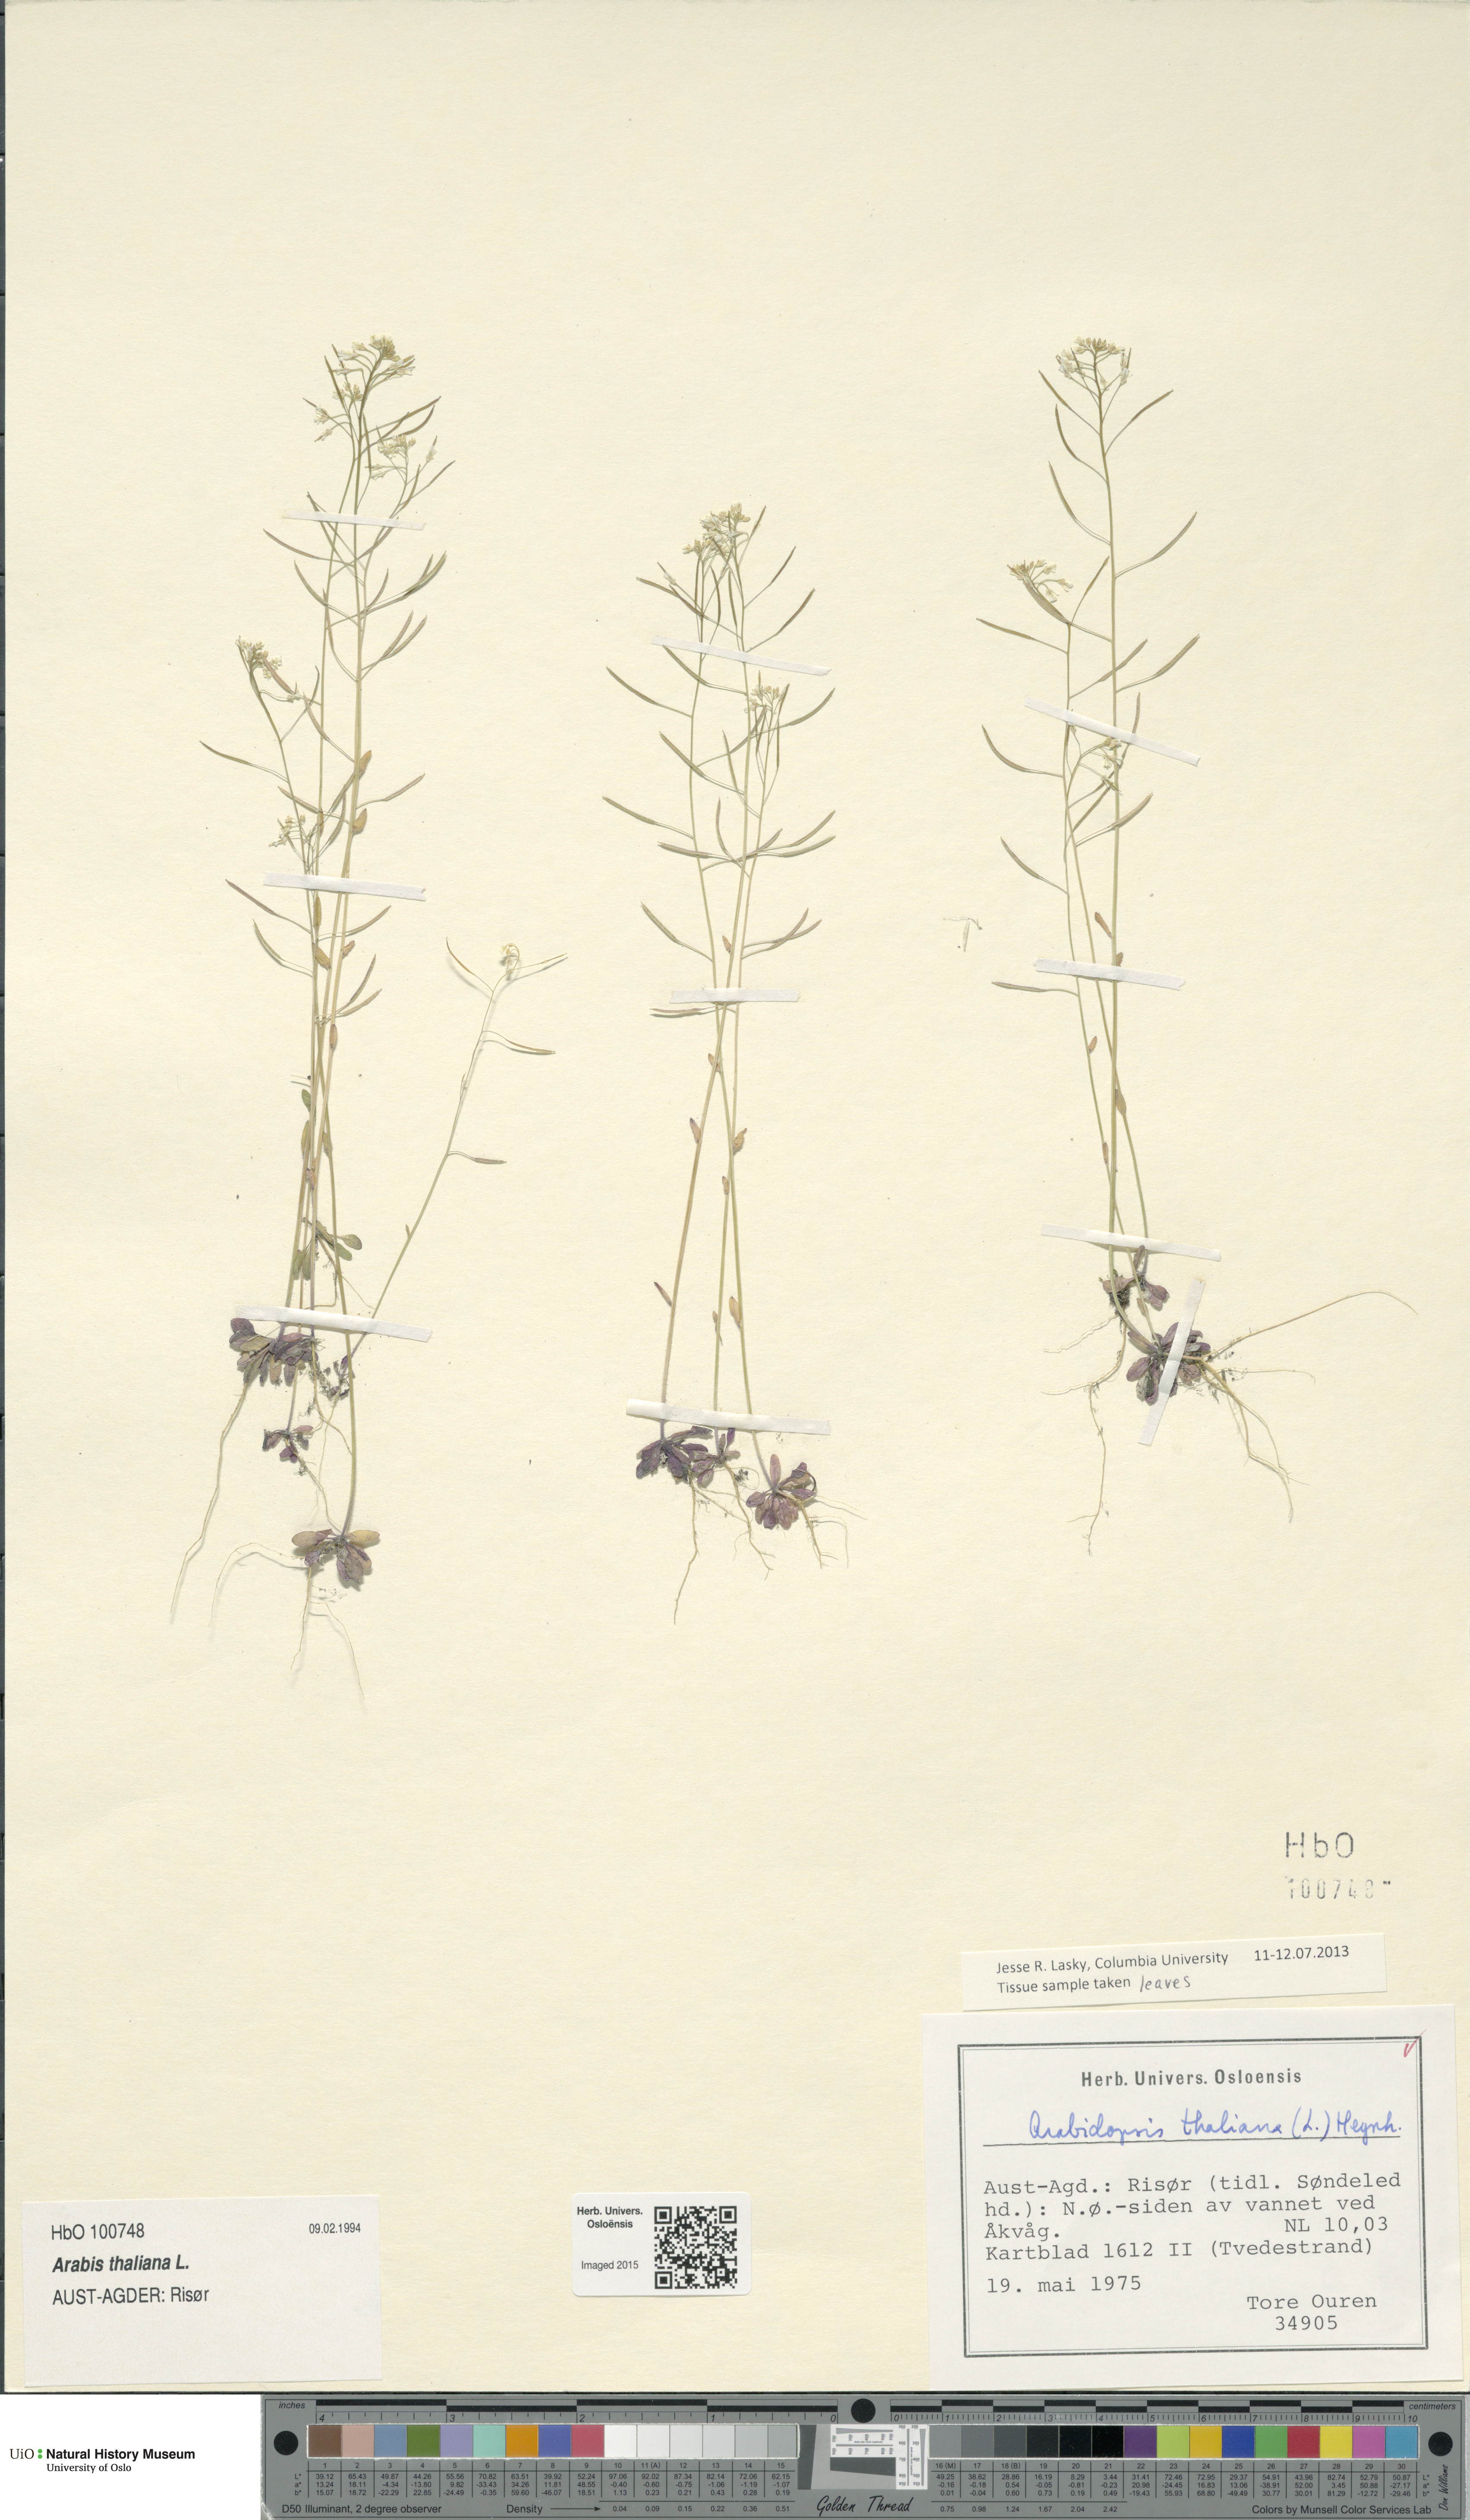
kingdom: Plantae
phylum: Tracheophyta
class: Magnoliopsida
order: Brassicales
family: Brassicaceae
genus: Arabidopsis
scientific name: Arabidopsis thaliana
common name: Thale cress
